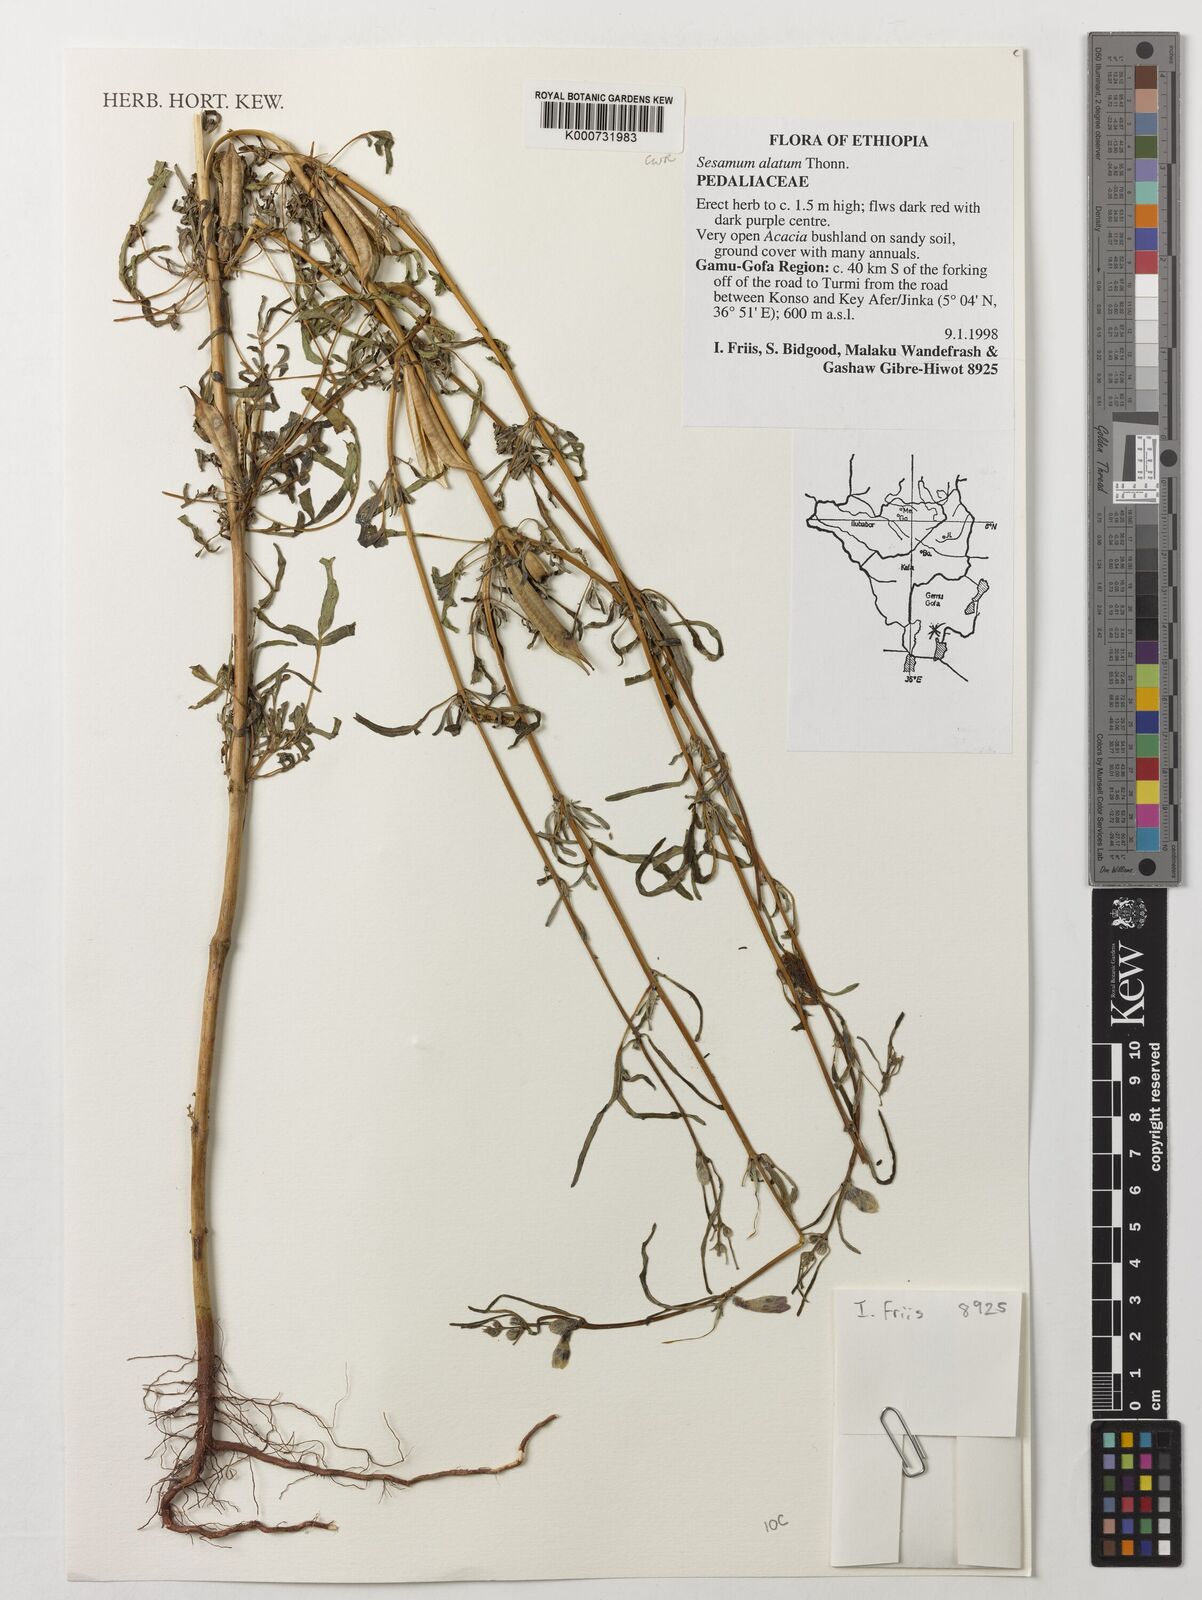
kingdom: Plantae
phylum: Tracheophyta
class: Magnoliopsida
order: Lamiales
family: Pedaliaceae
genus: Sesamum
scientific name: Sesamum alatum
